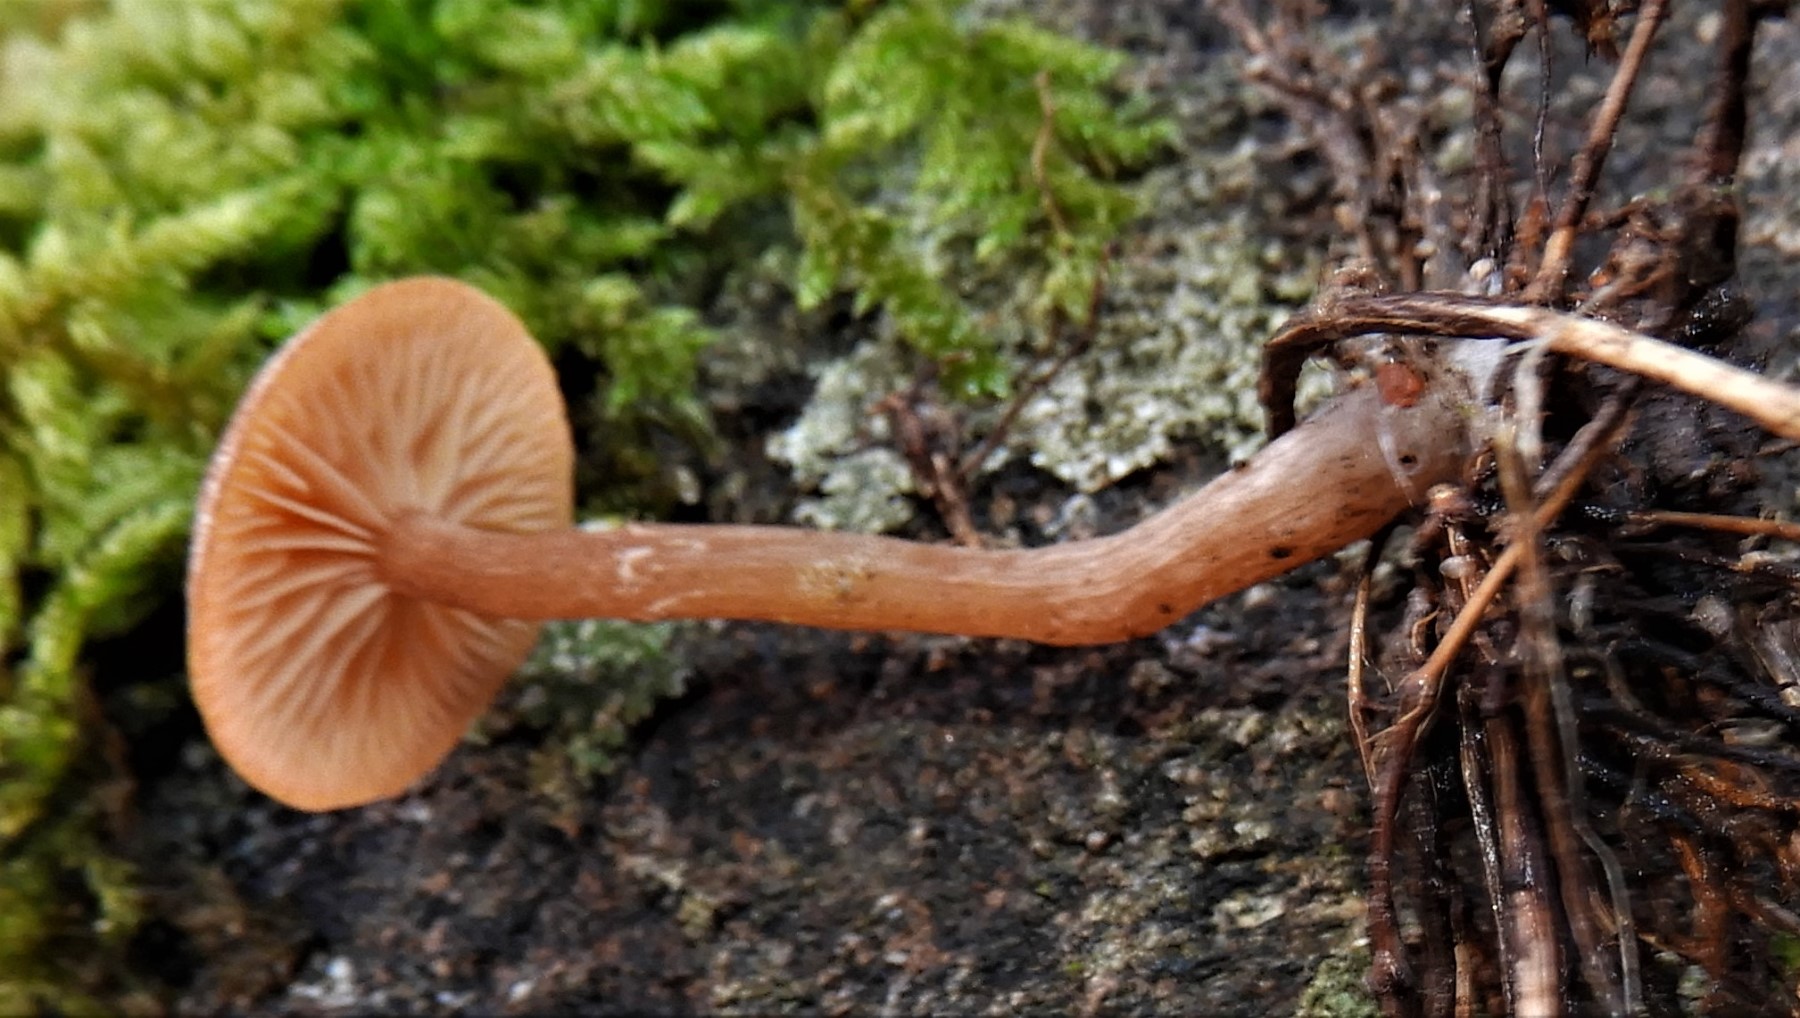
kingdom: Fungi
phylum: Basidiomycota
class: Agaricomycetes
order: Agaricales
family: Tubariaceae
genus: Tubaria
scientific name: Tubaria furfuracea
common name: kliddet fnughat
